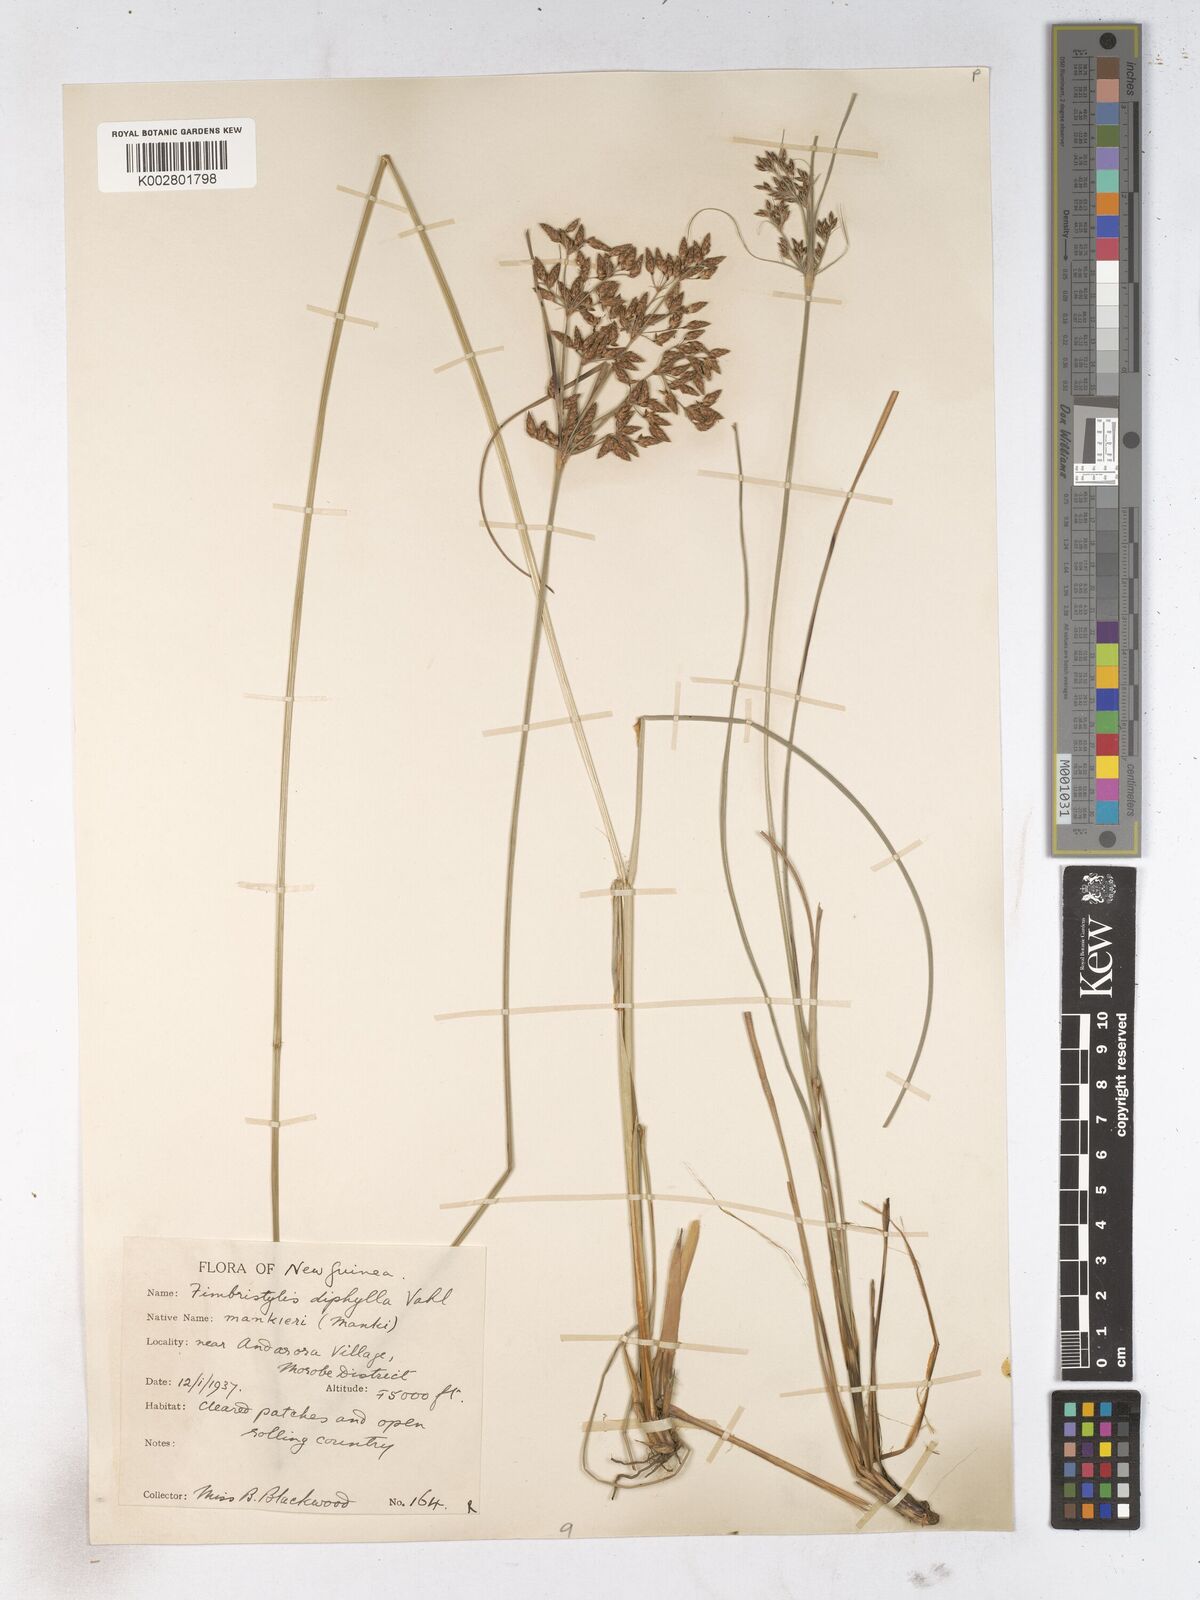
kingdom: Plantae
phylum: Tracheophyta
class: Liliopsida
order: Poales
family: Cyperaceae
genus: Fimbristylis
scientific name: Fimbristylis dichotoma
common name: Forked fimbry
